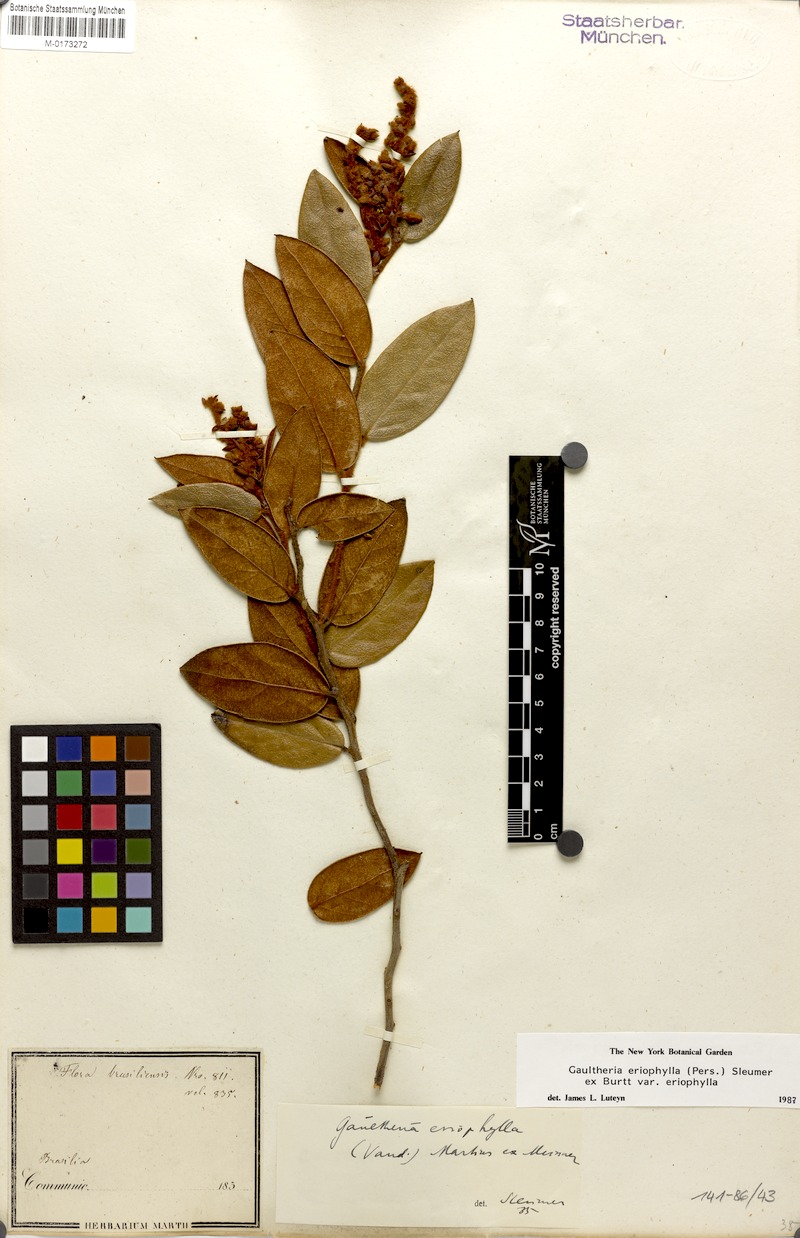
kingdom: Plantae
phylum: Tracheophyta
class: Magnoliopsida
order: Ericales
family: Ericaceae
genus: Gaultheria
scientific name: Gaultheria eriophylla
